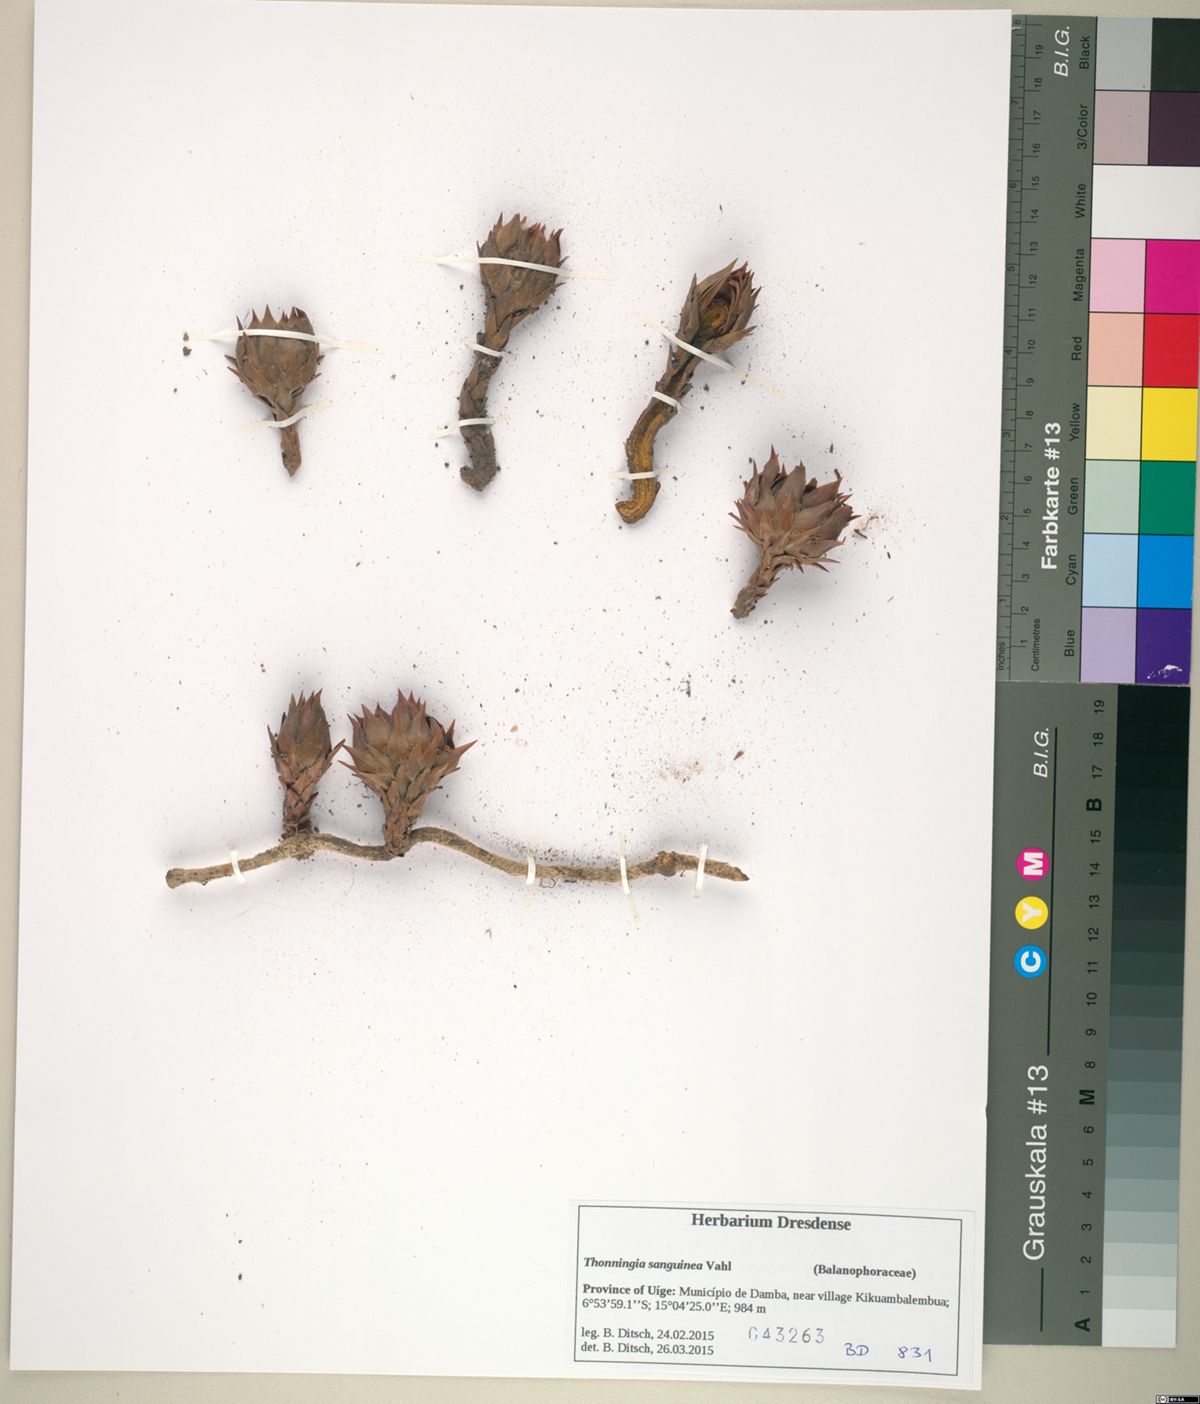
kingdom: Plantae
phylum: Tracheophyta
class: Magnoliopsida
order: Santalales
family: Balanophoraceae
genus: Thonningia
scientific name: Thonningia sanguinea
